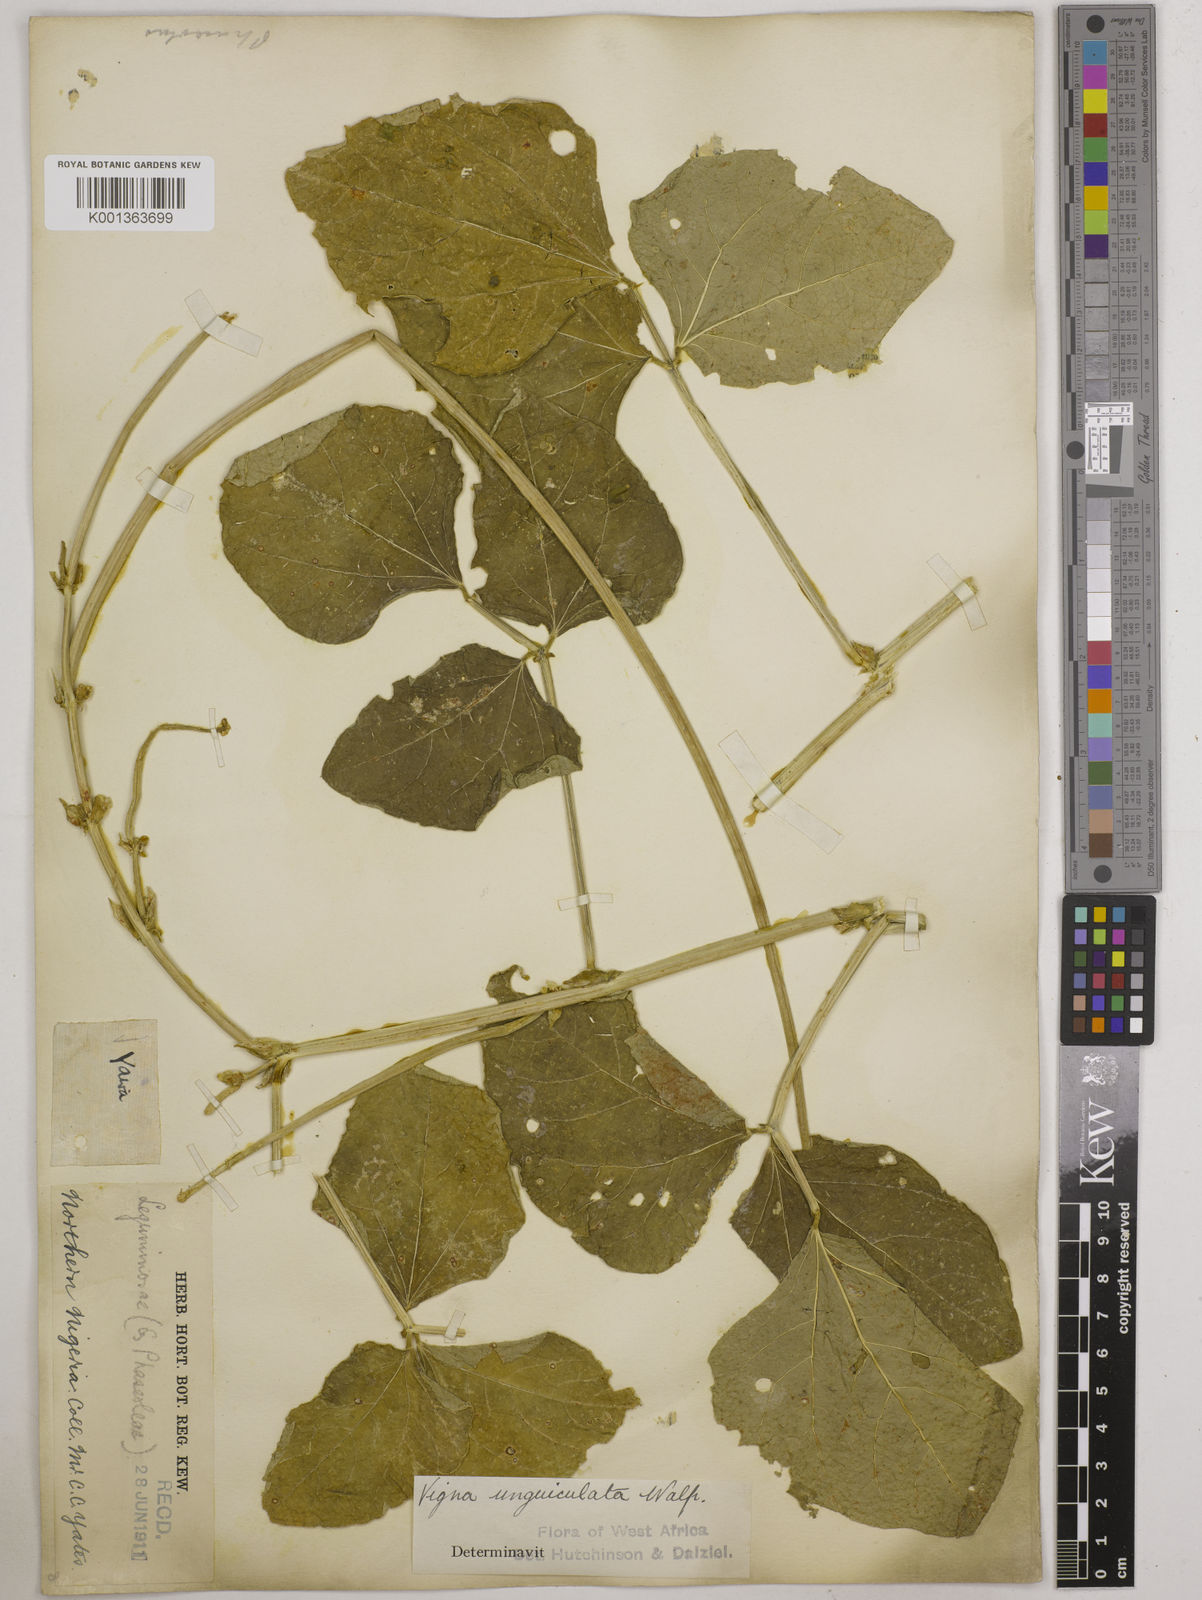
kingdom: Plantae
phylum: Tracheophyta
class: Magnoliopsida
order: Fabales
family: Fabaceae
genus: Vigna
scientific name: Vigna unguiculata
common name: Cowpea
